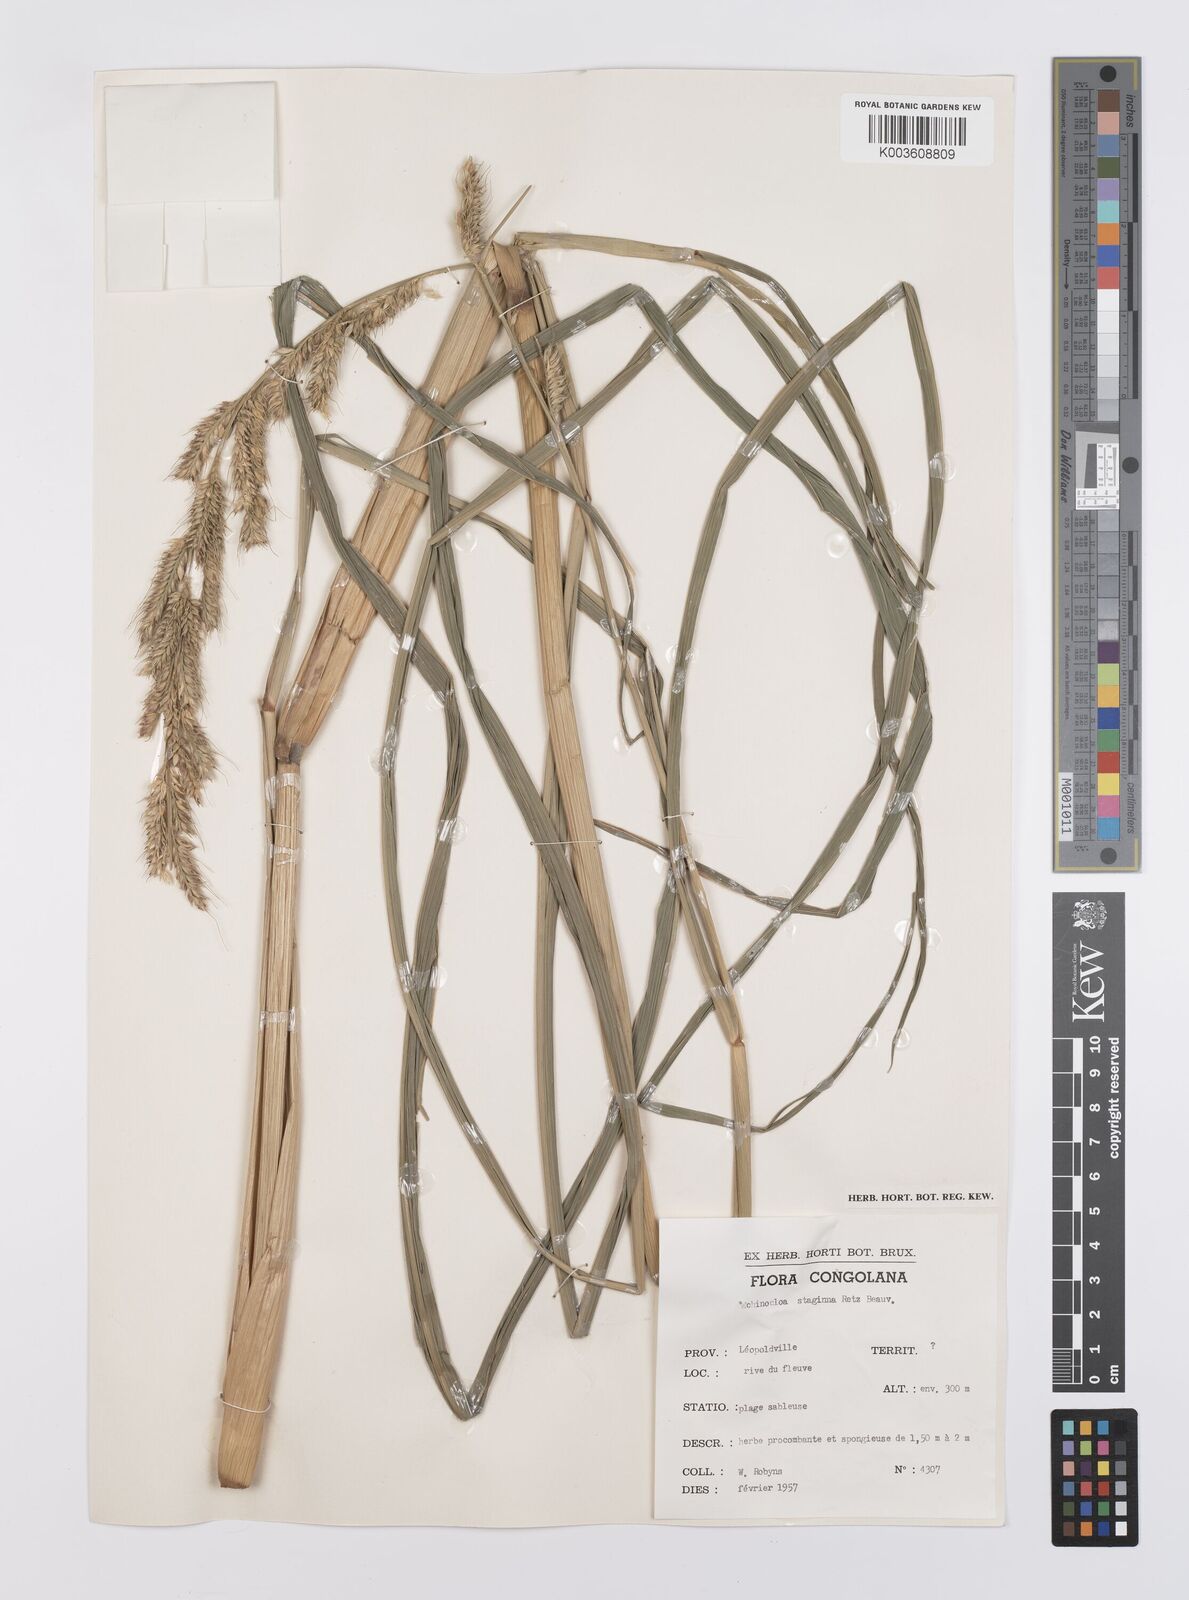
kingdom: Plantae
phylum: Tracheophyta
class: Liliopsida
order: Poales
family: Poaceae
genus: Echinochloa
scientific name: Echinochloa stagnina
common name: Burgu grass
